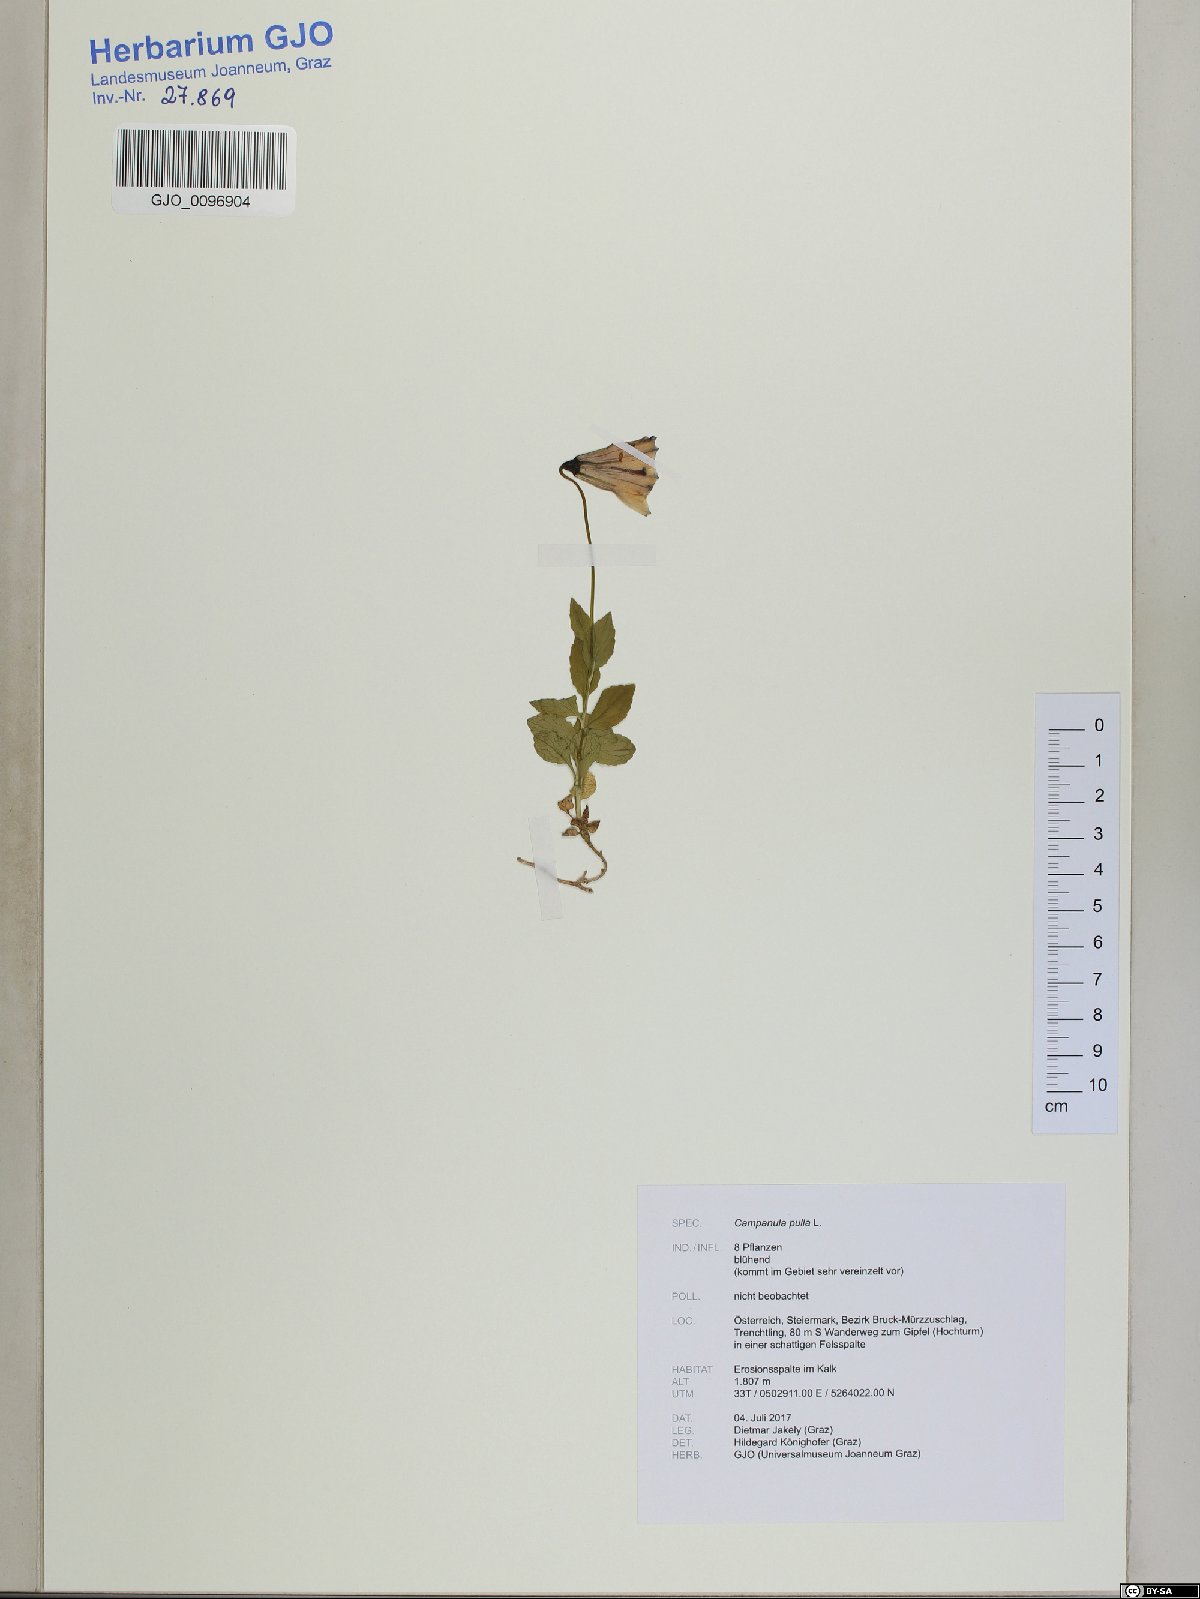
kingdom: Plantae
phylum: Tracheophyta
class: Magnoliopsida
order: Asterales
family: Campanulaceae
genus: Campanula
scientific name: Campanula pulla
